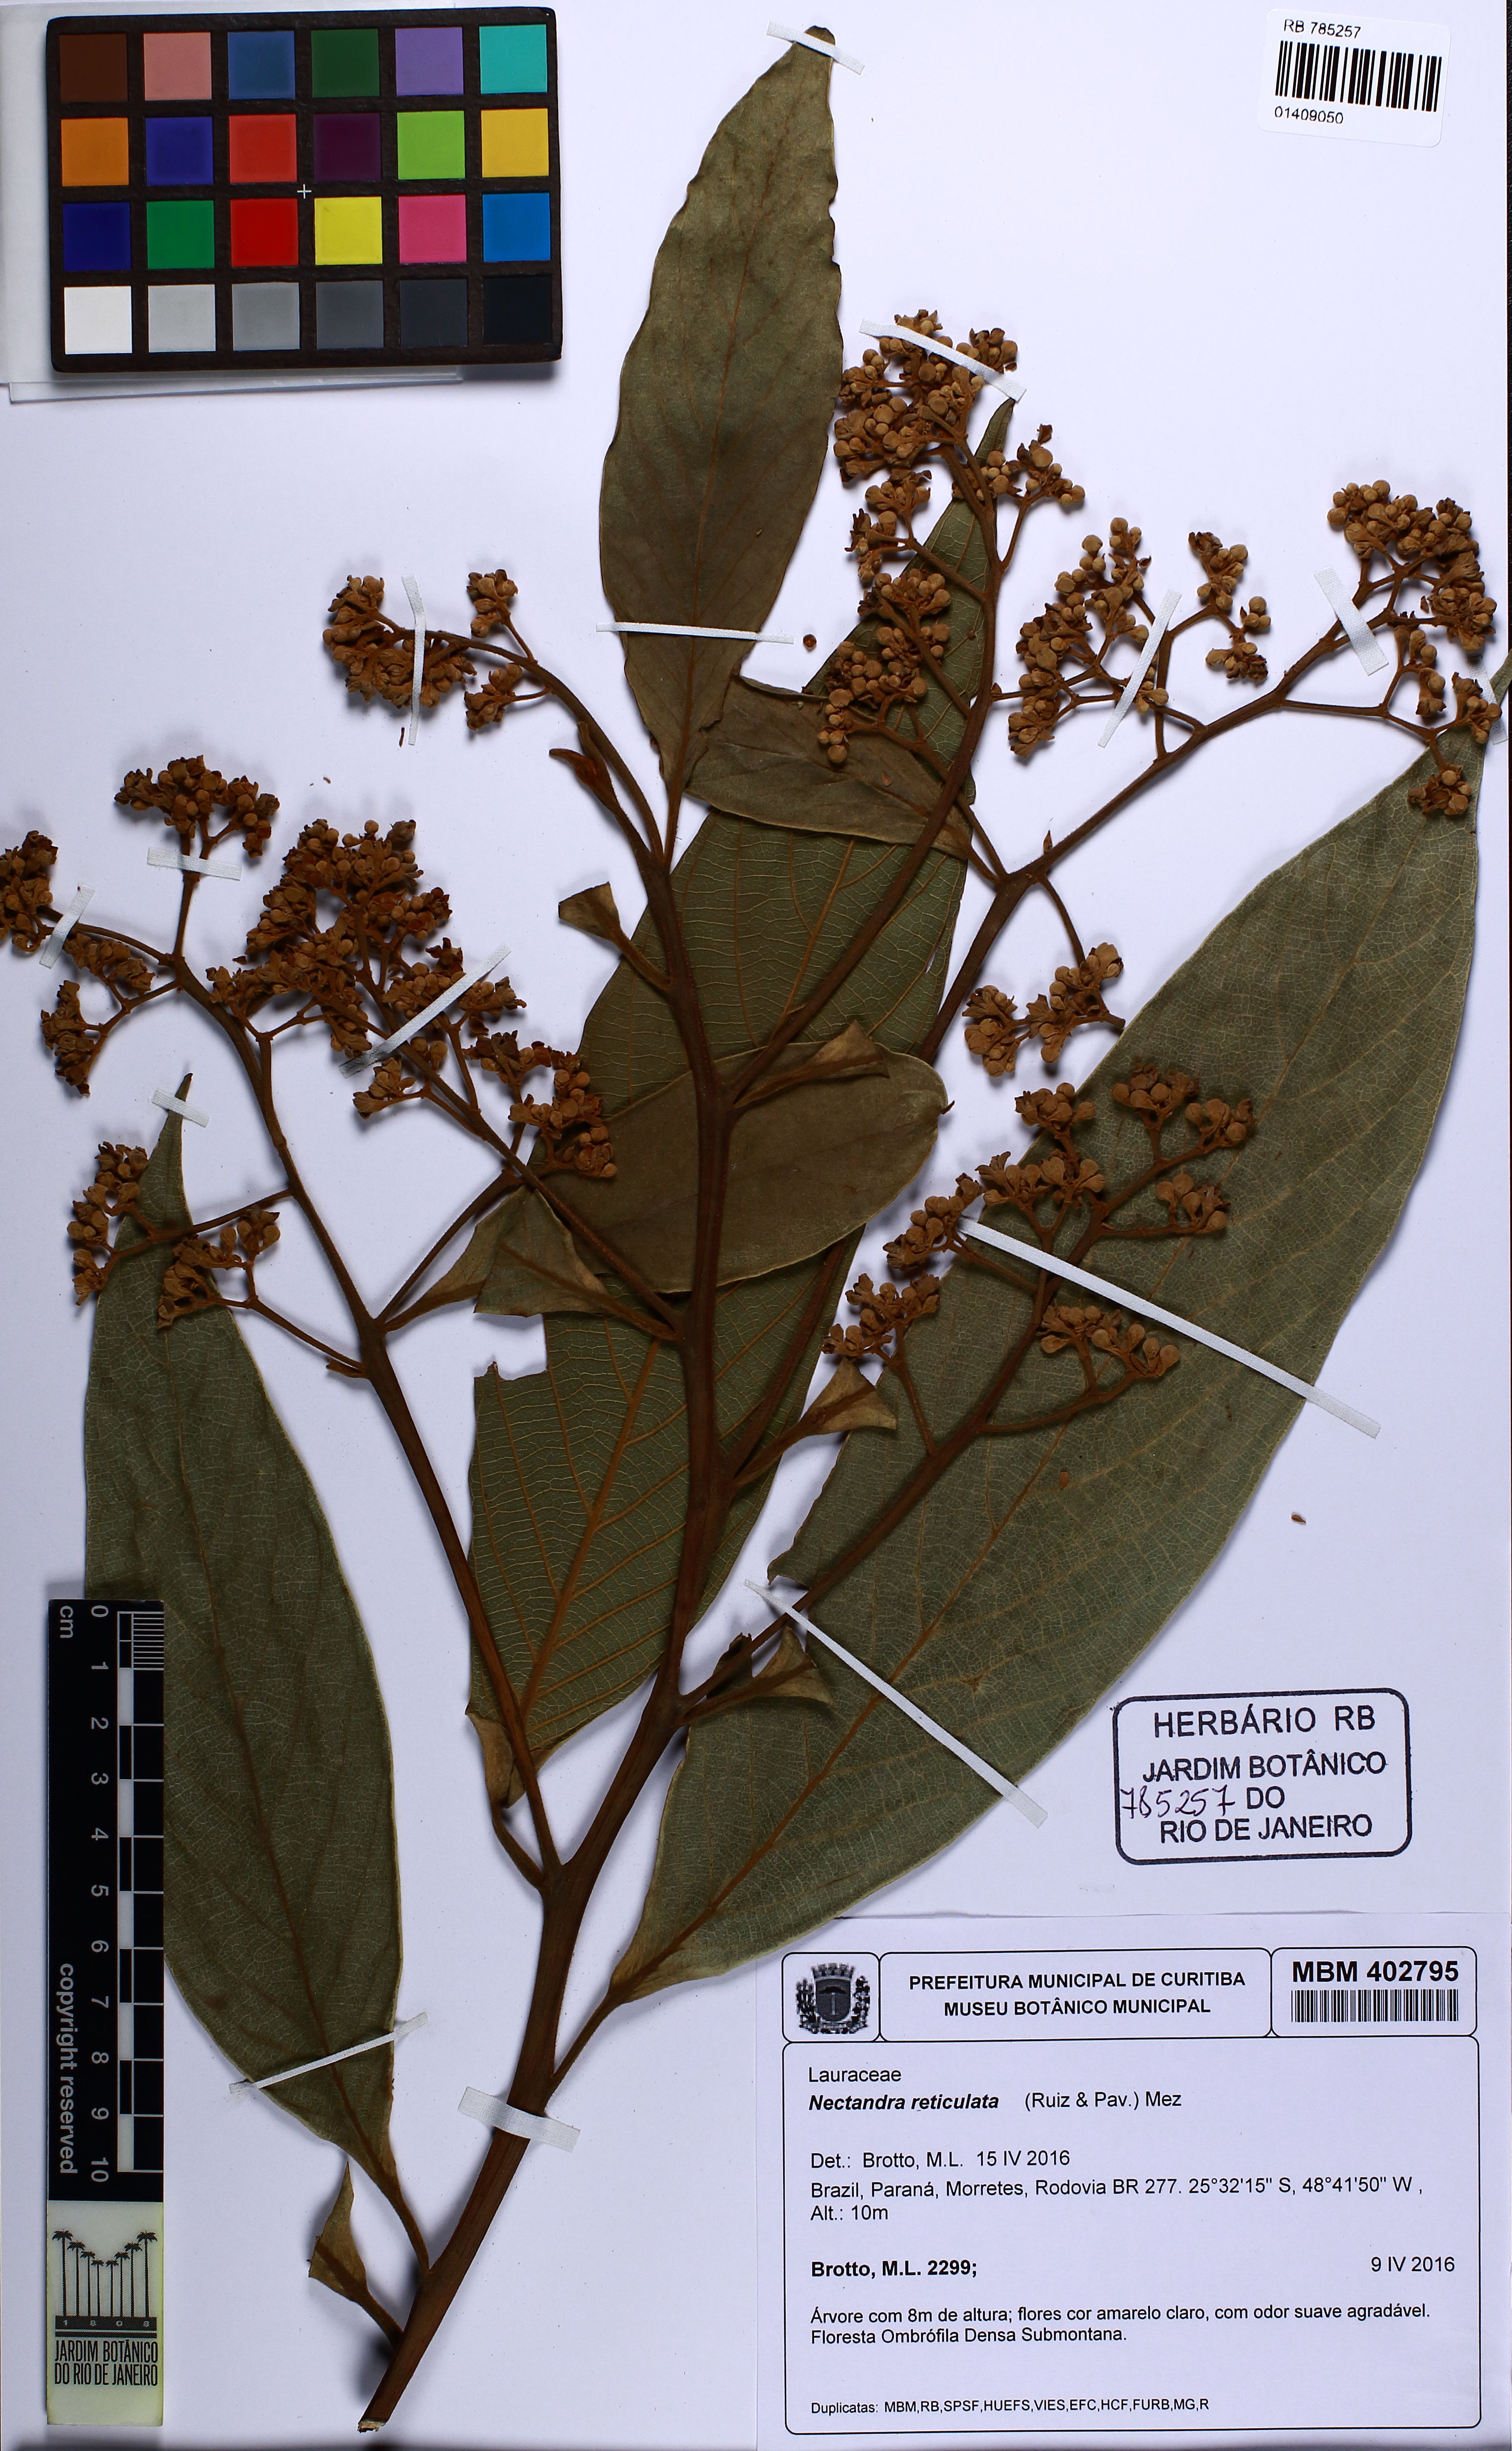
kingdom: Plantae
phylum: Tracheophyta
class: Magnoliopsida
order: Laurales
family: Lauraceae
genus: Nectandra
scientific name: Nectandra villosa
